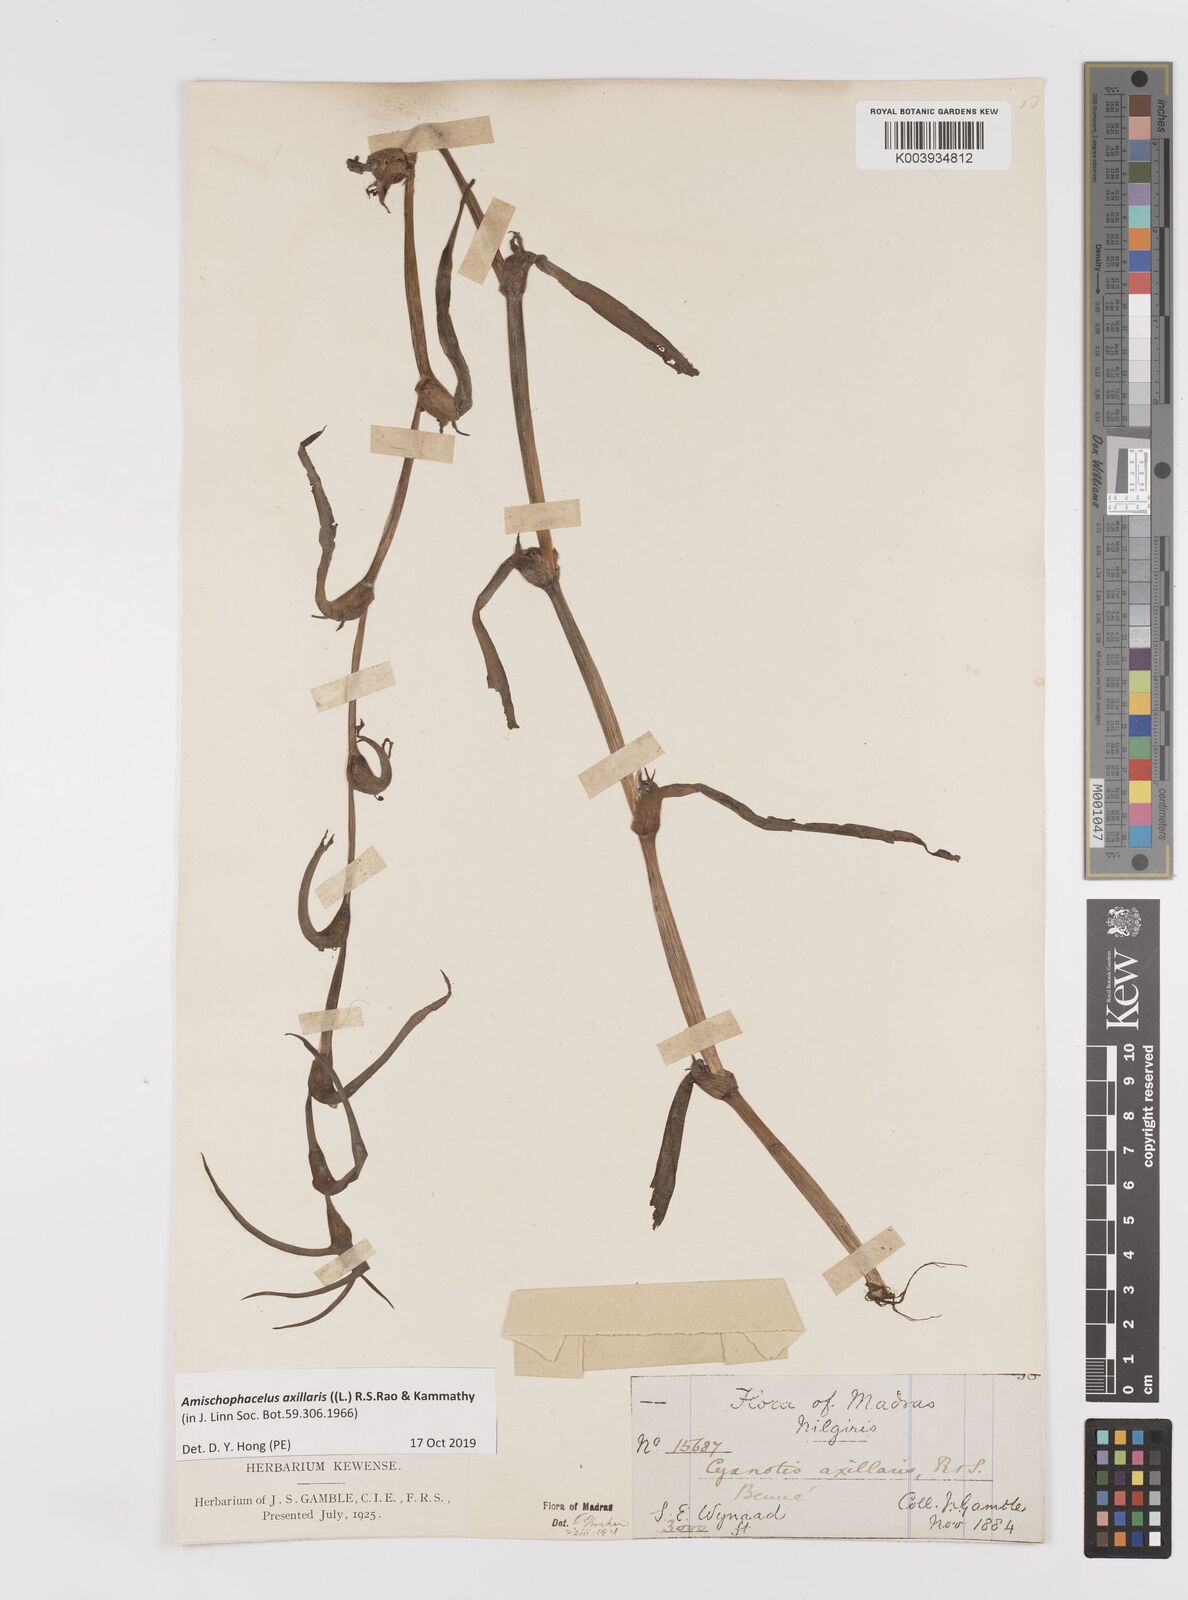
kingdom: Plantae
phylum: Tracheophyta
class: Liliopsida
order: Commelinales
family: Commelinaceae
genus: Cyanotis
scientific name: Cyanotis axillaris
